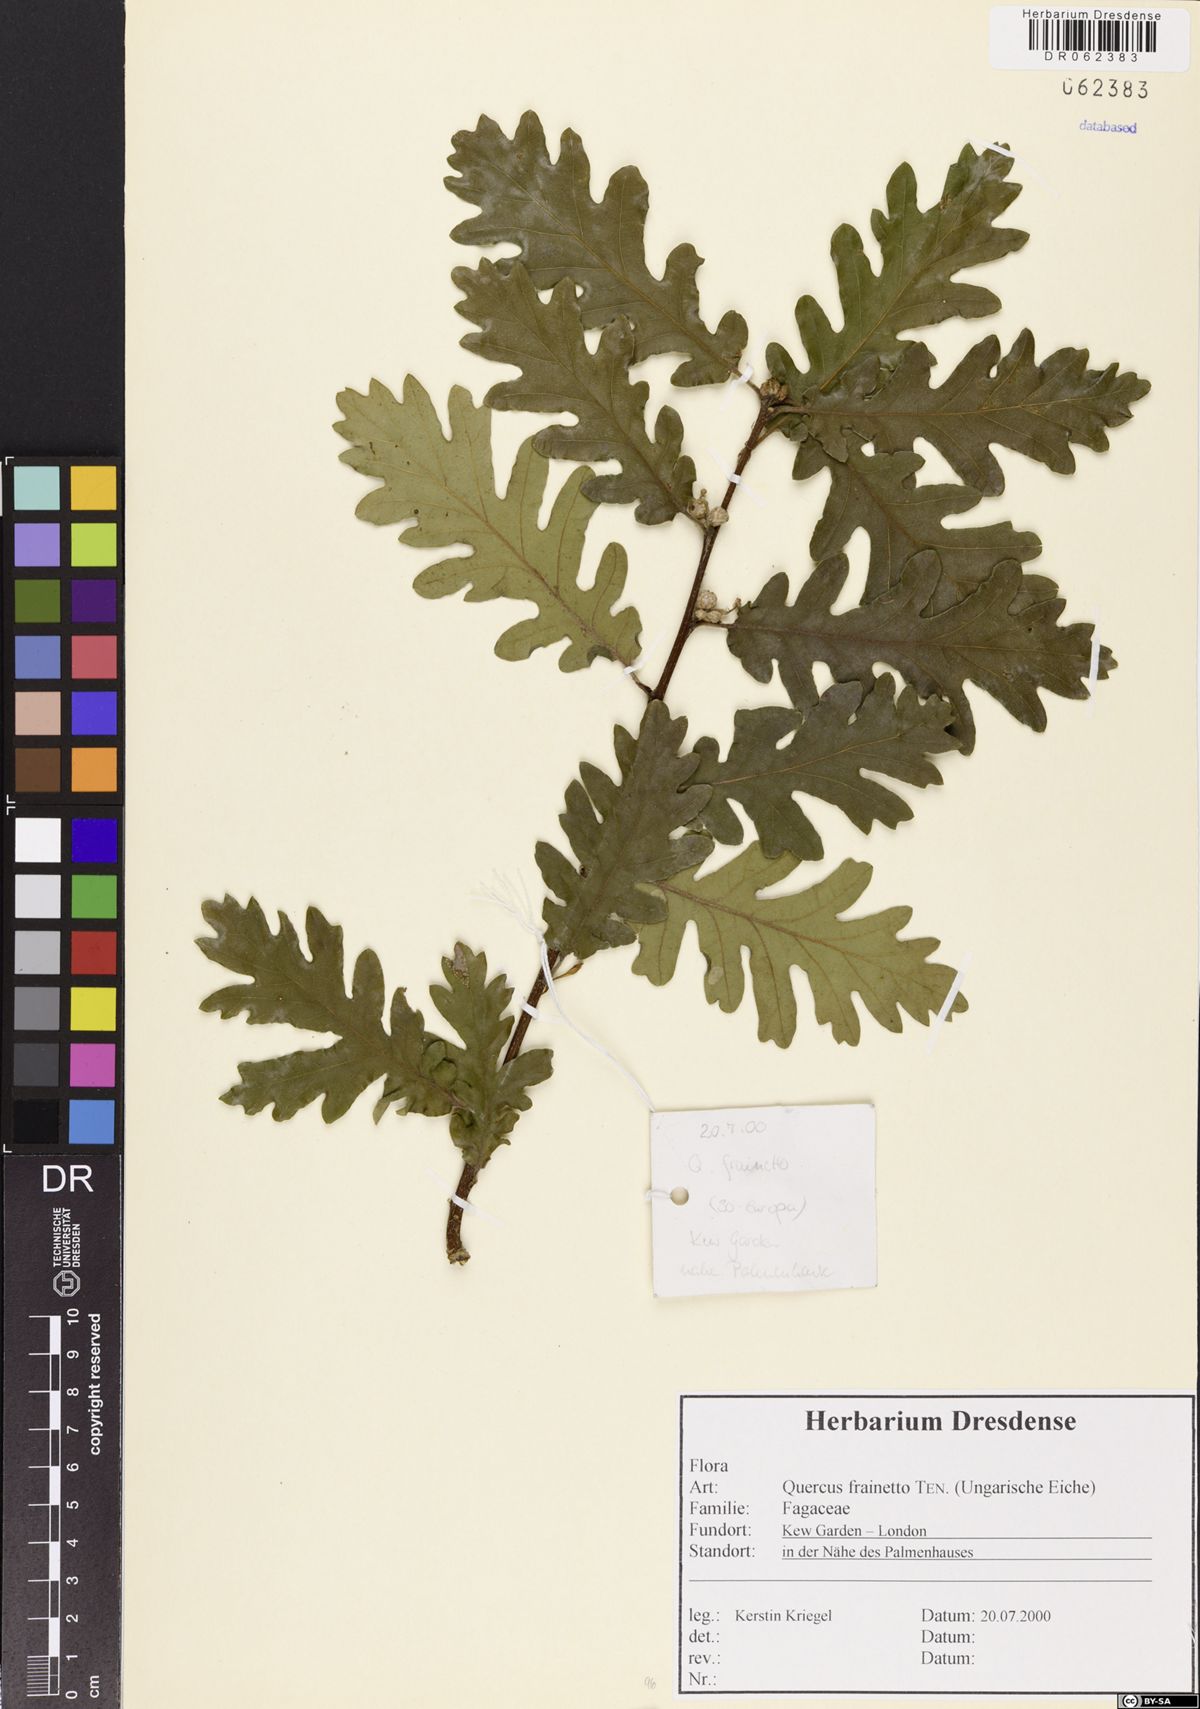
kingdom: Plantae
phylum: Tracheophyta
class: Magnoliopsida
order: Fagales
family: Fagaceae
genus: Quercus
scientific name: Quercus conferta
